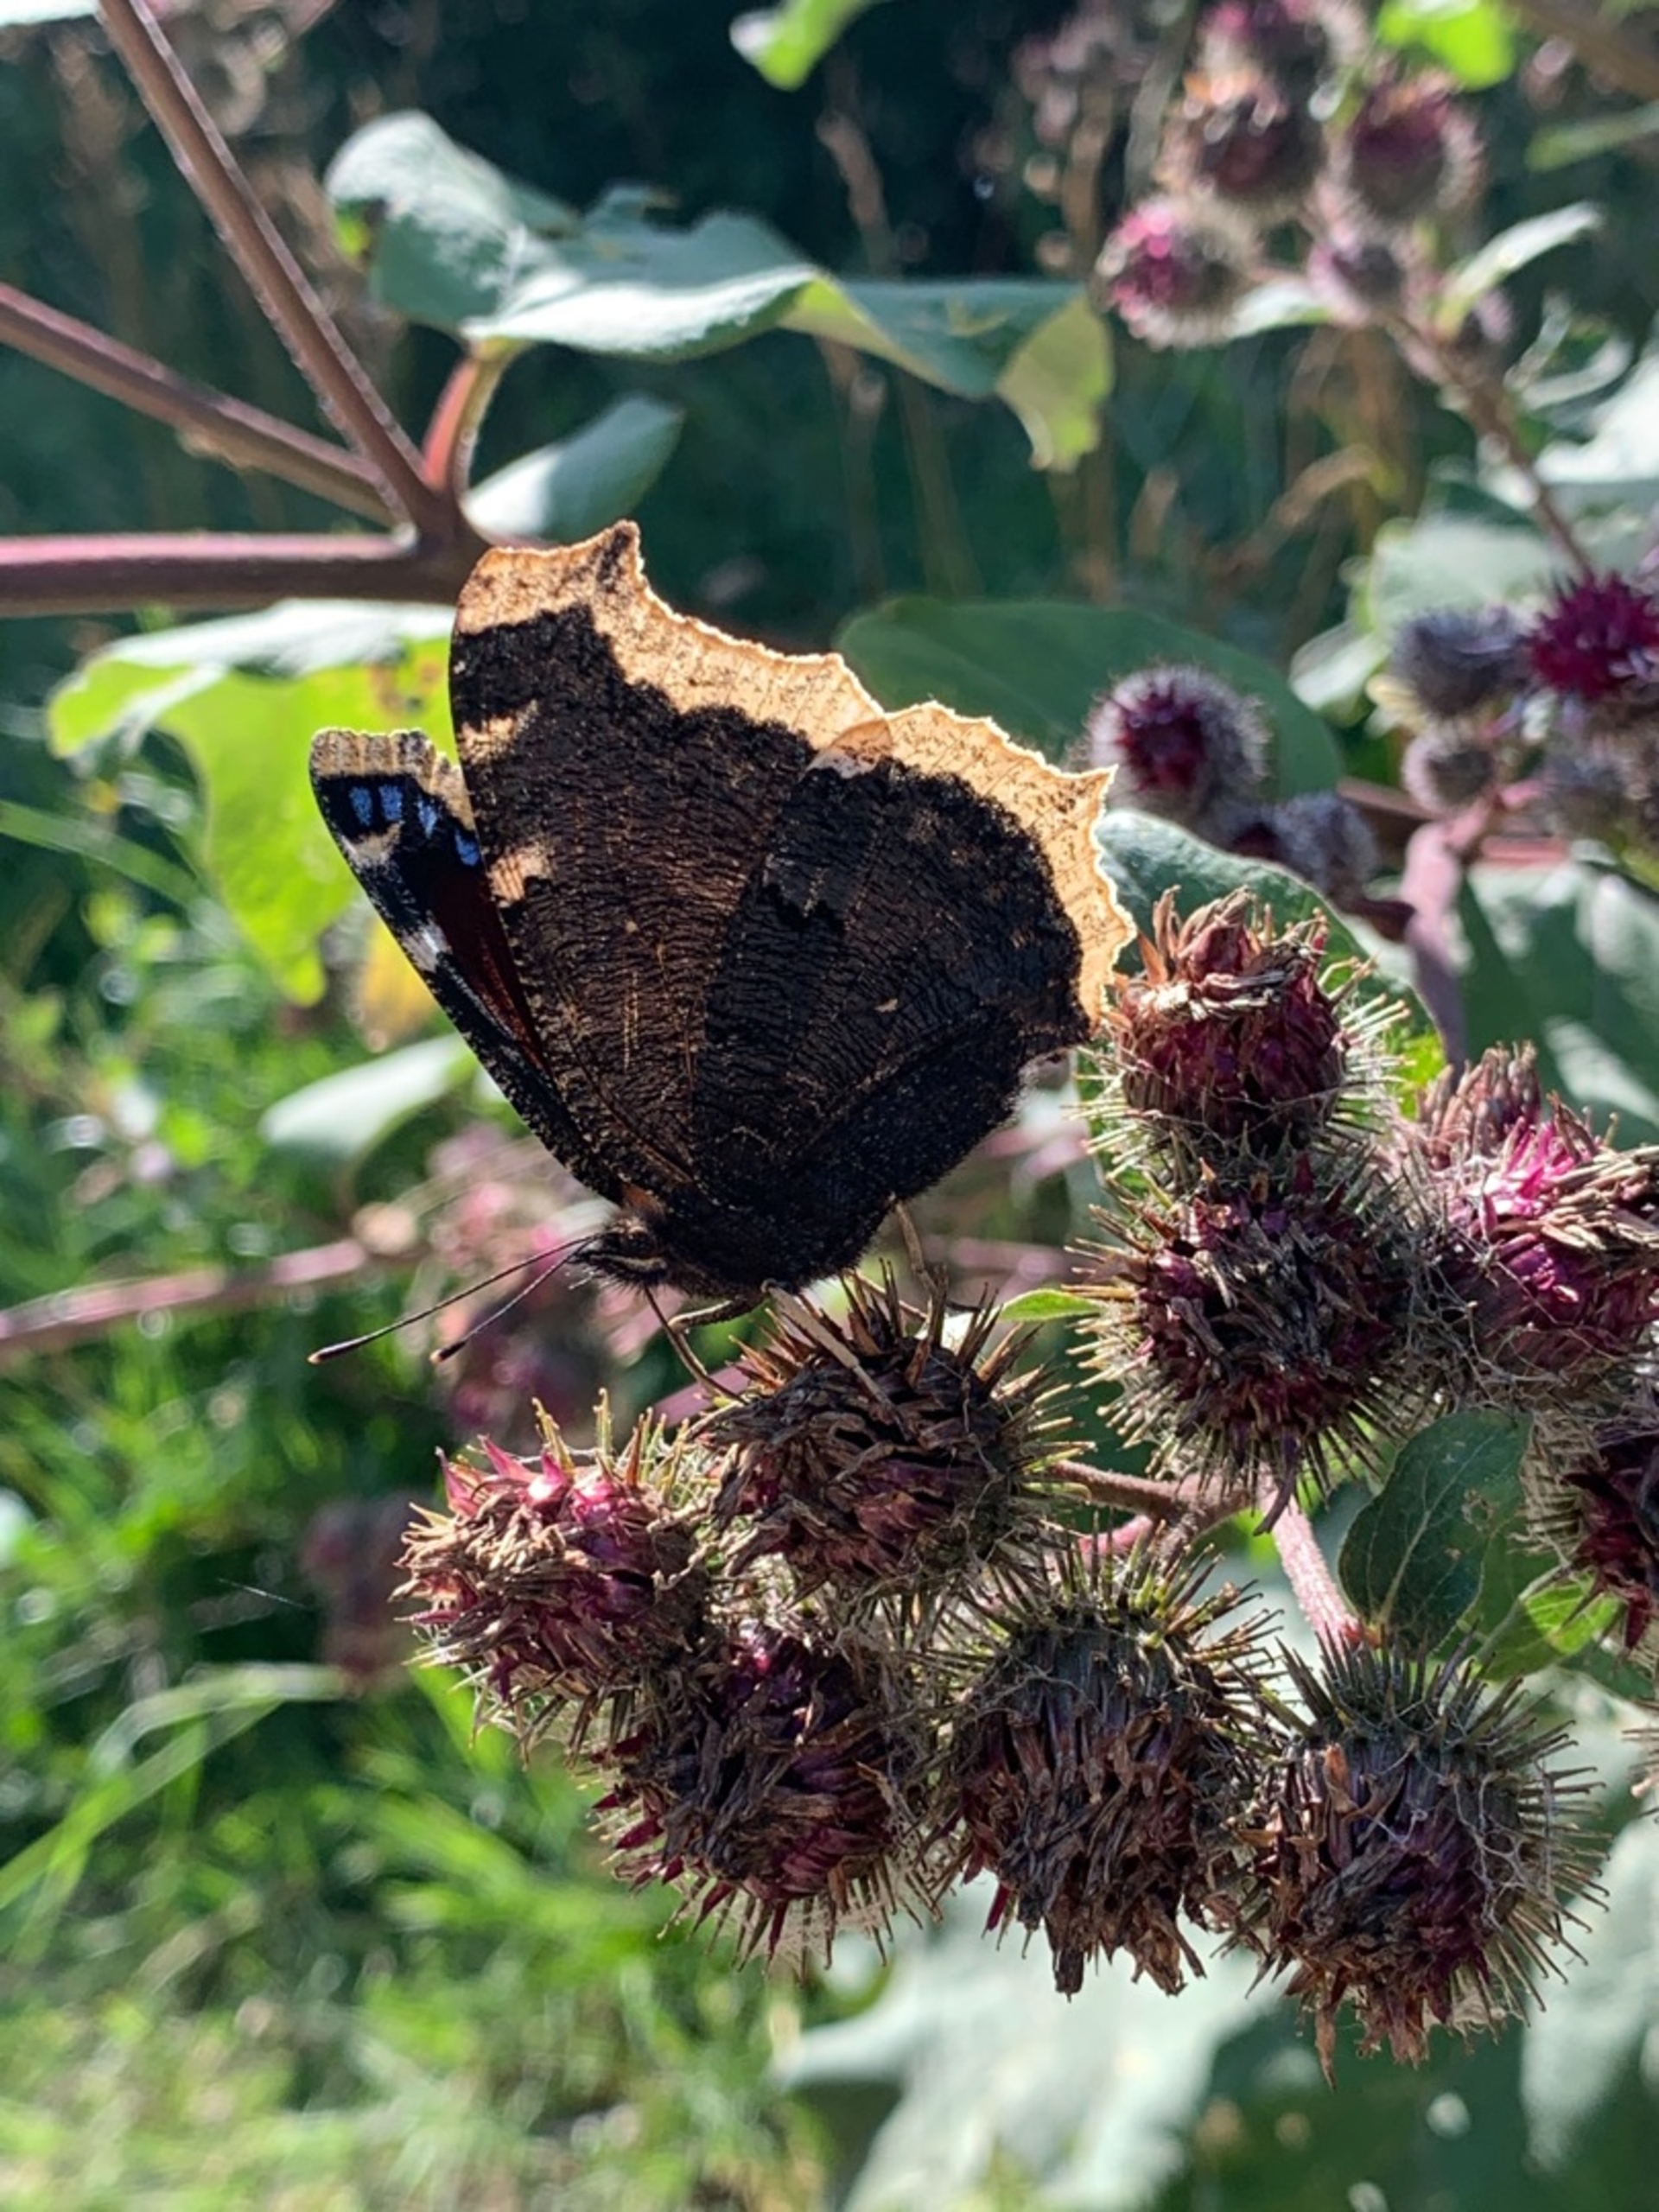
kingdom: Animalia
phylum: Arthropoda
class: Insecta
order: Lepidoptera
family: Nymphalidae
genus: Nymphalis
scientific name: Nymphalis antiopa
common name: Sørgekåbe
